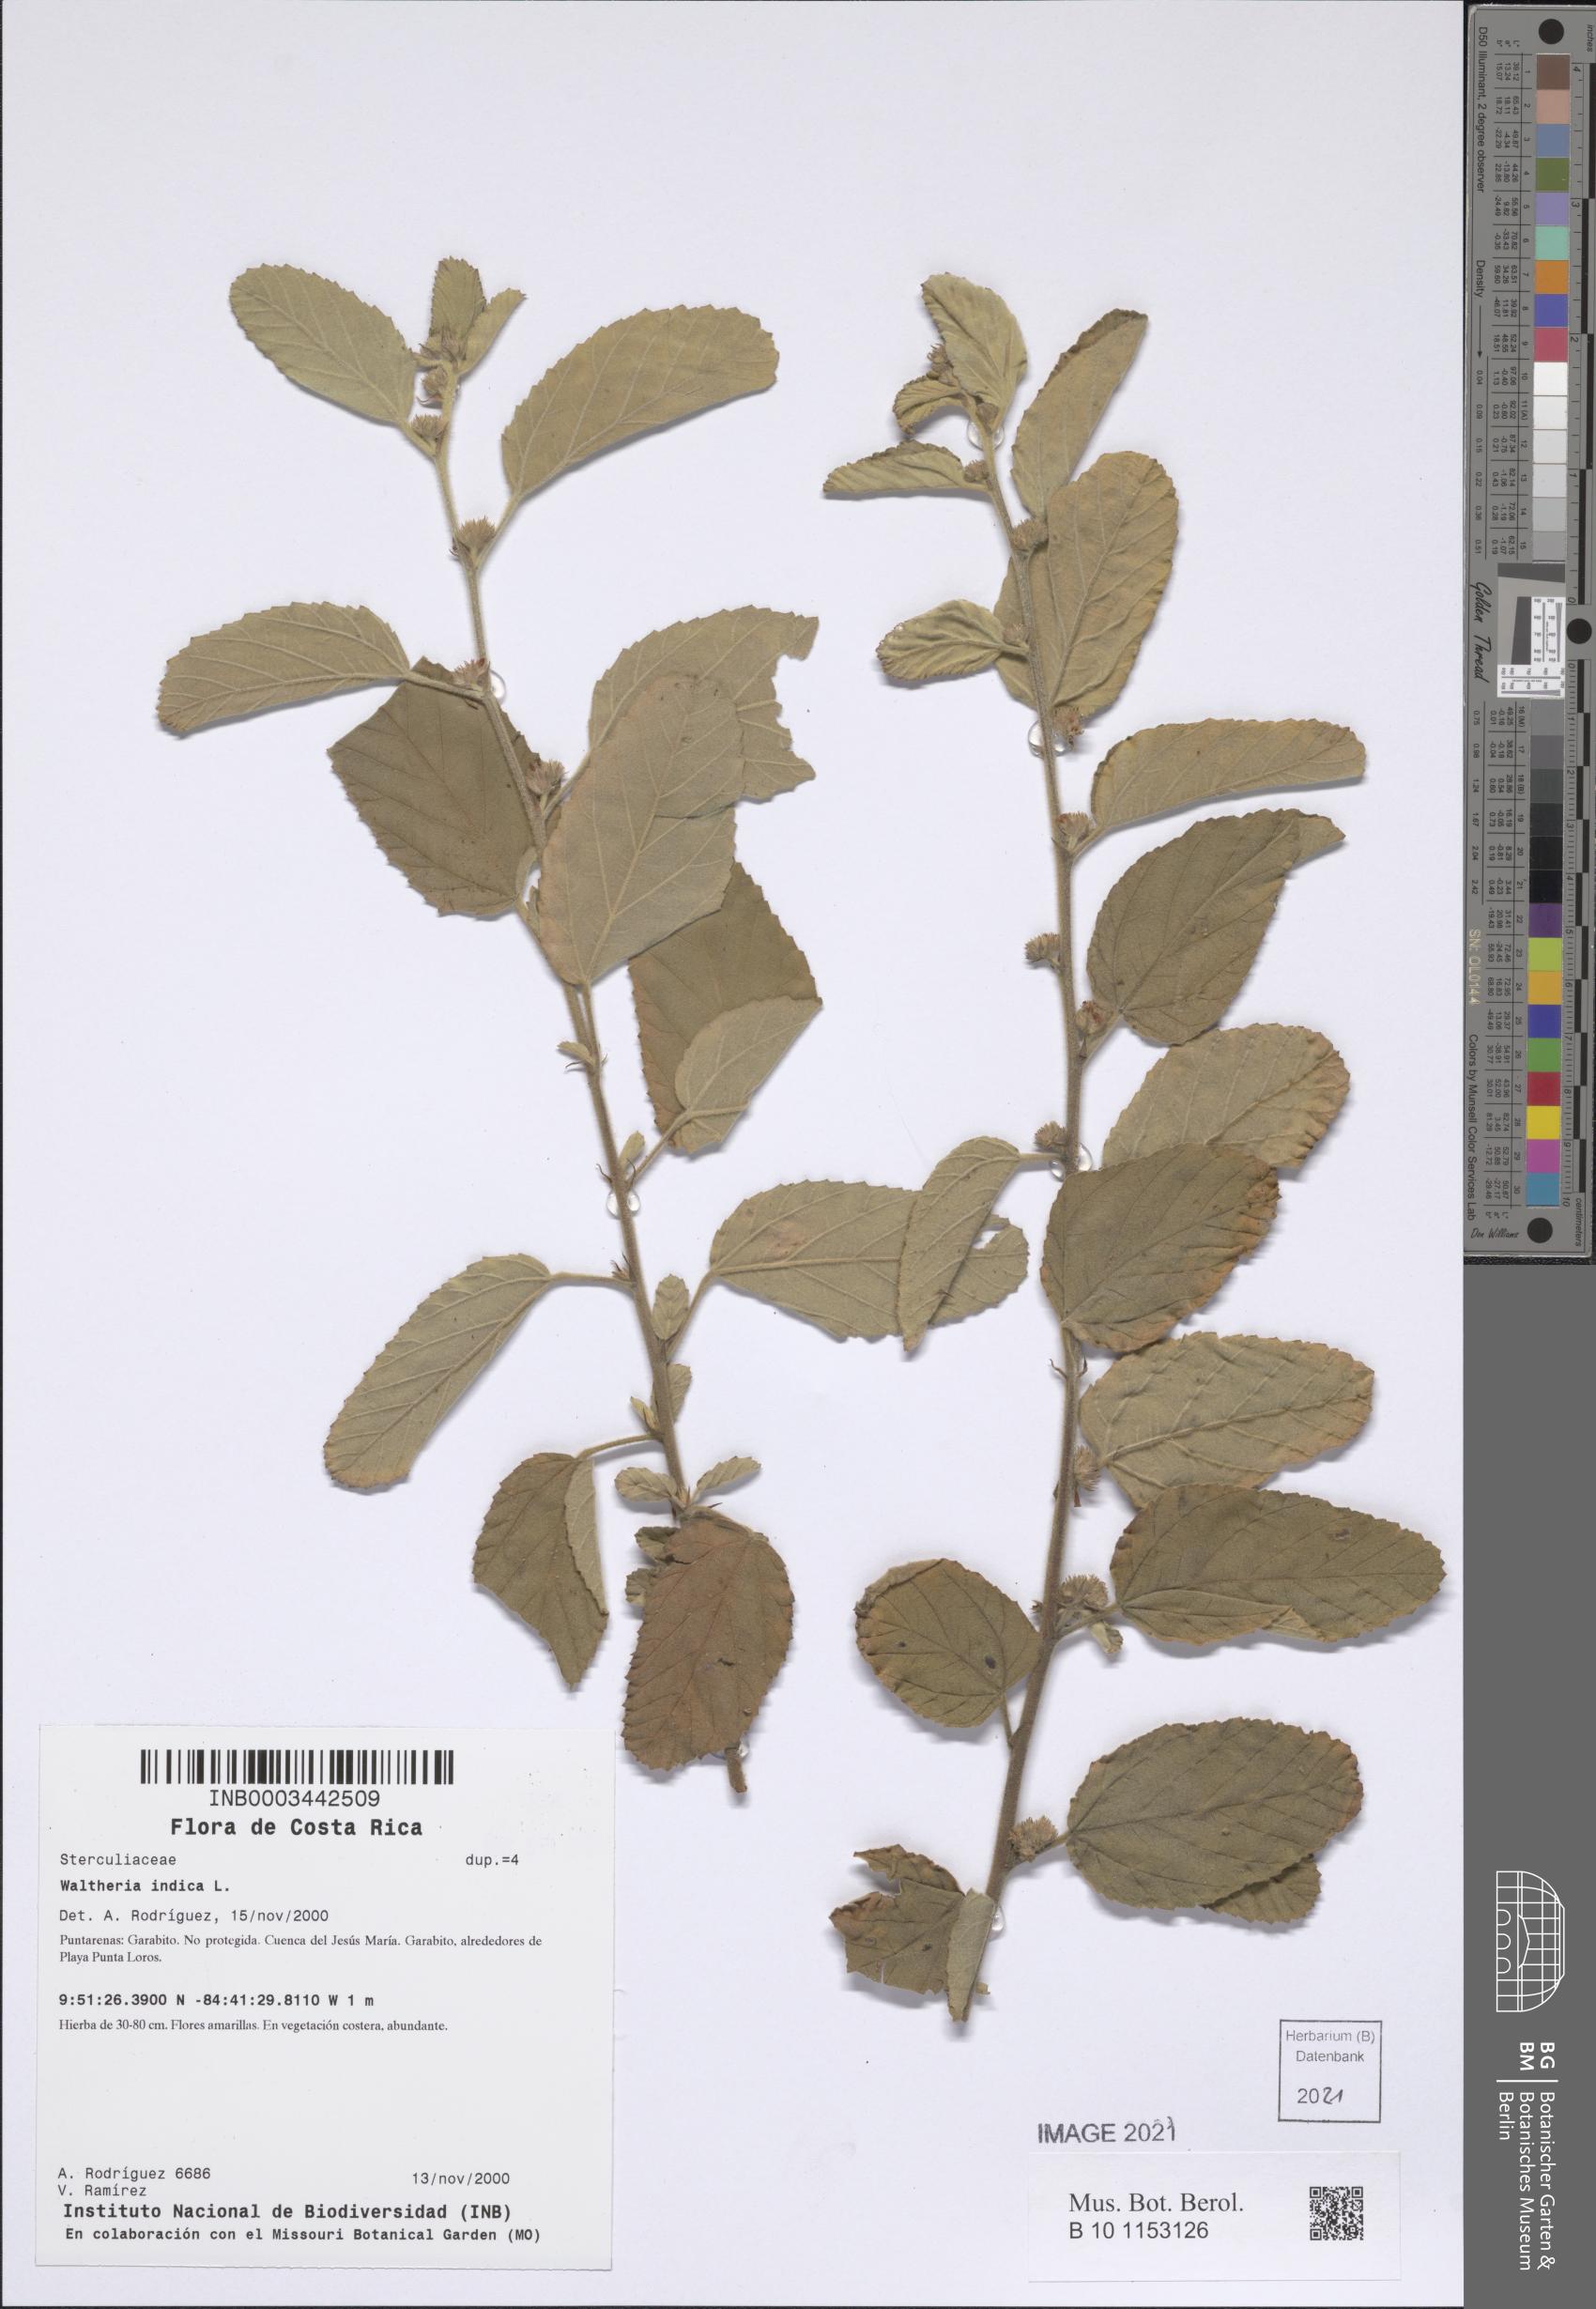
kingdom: Plantae
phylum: Tracheophyta
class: Magnoliopsida
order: Malvales
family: Malvaceae
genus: Waltheria
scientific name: Waltheria indica
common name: Leather-coat
